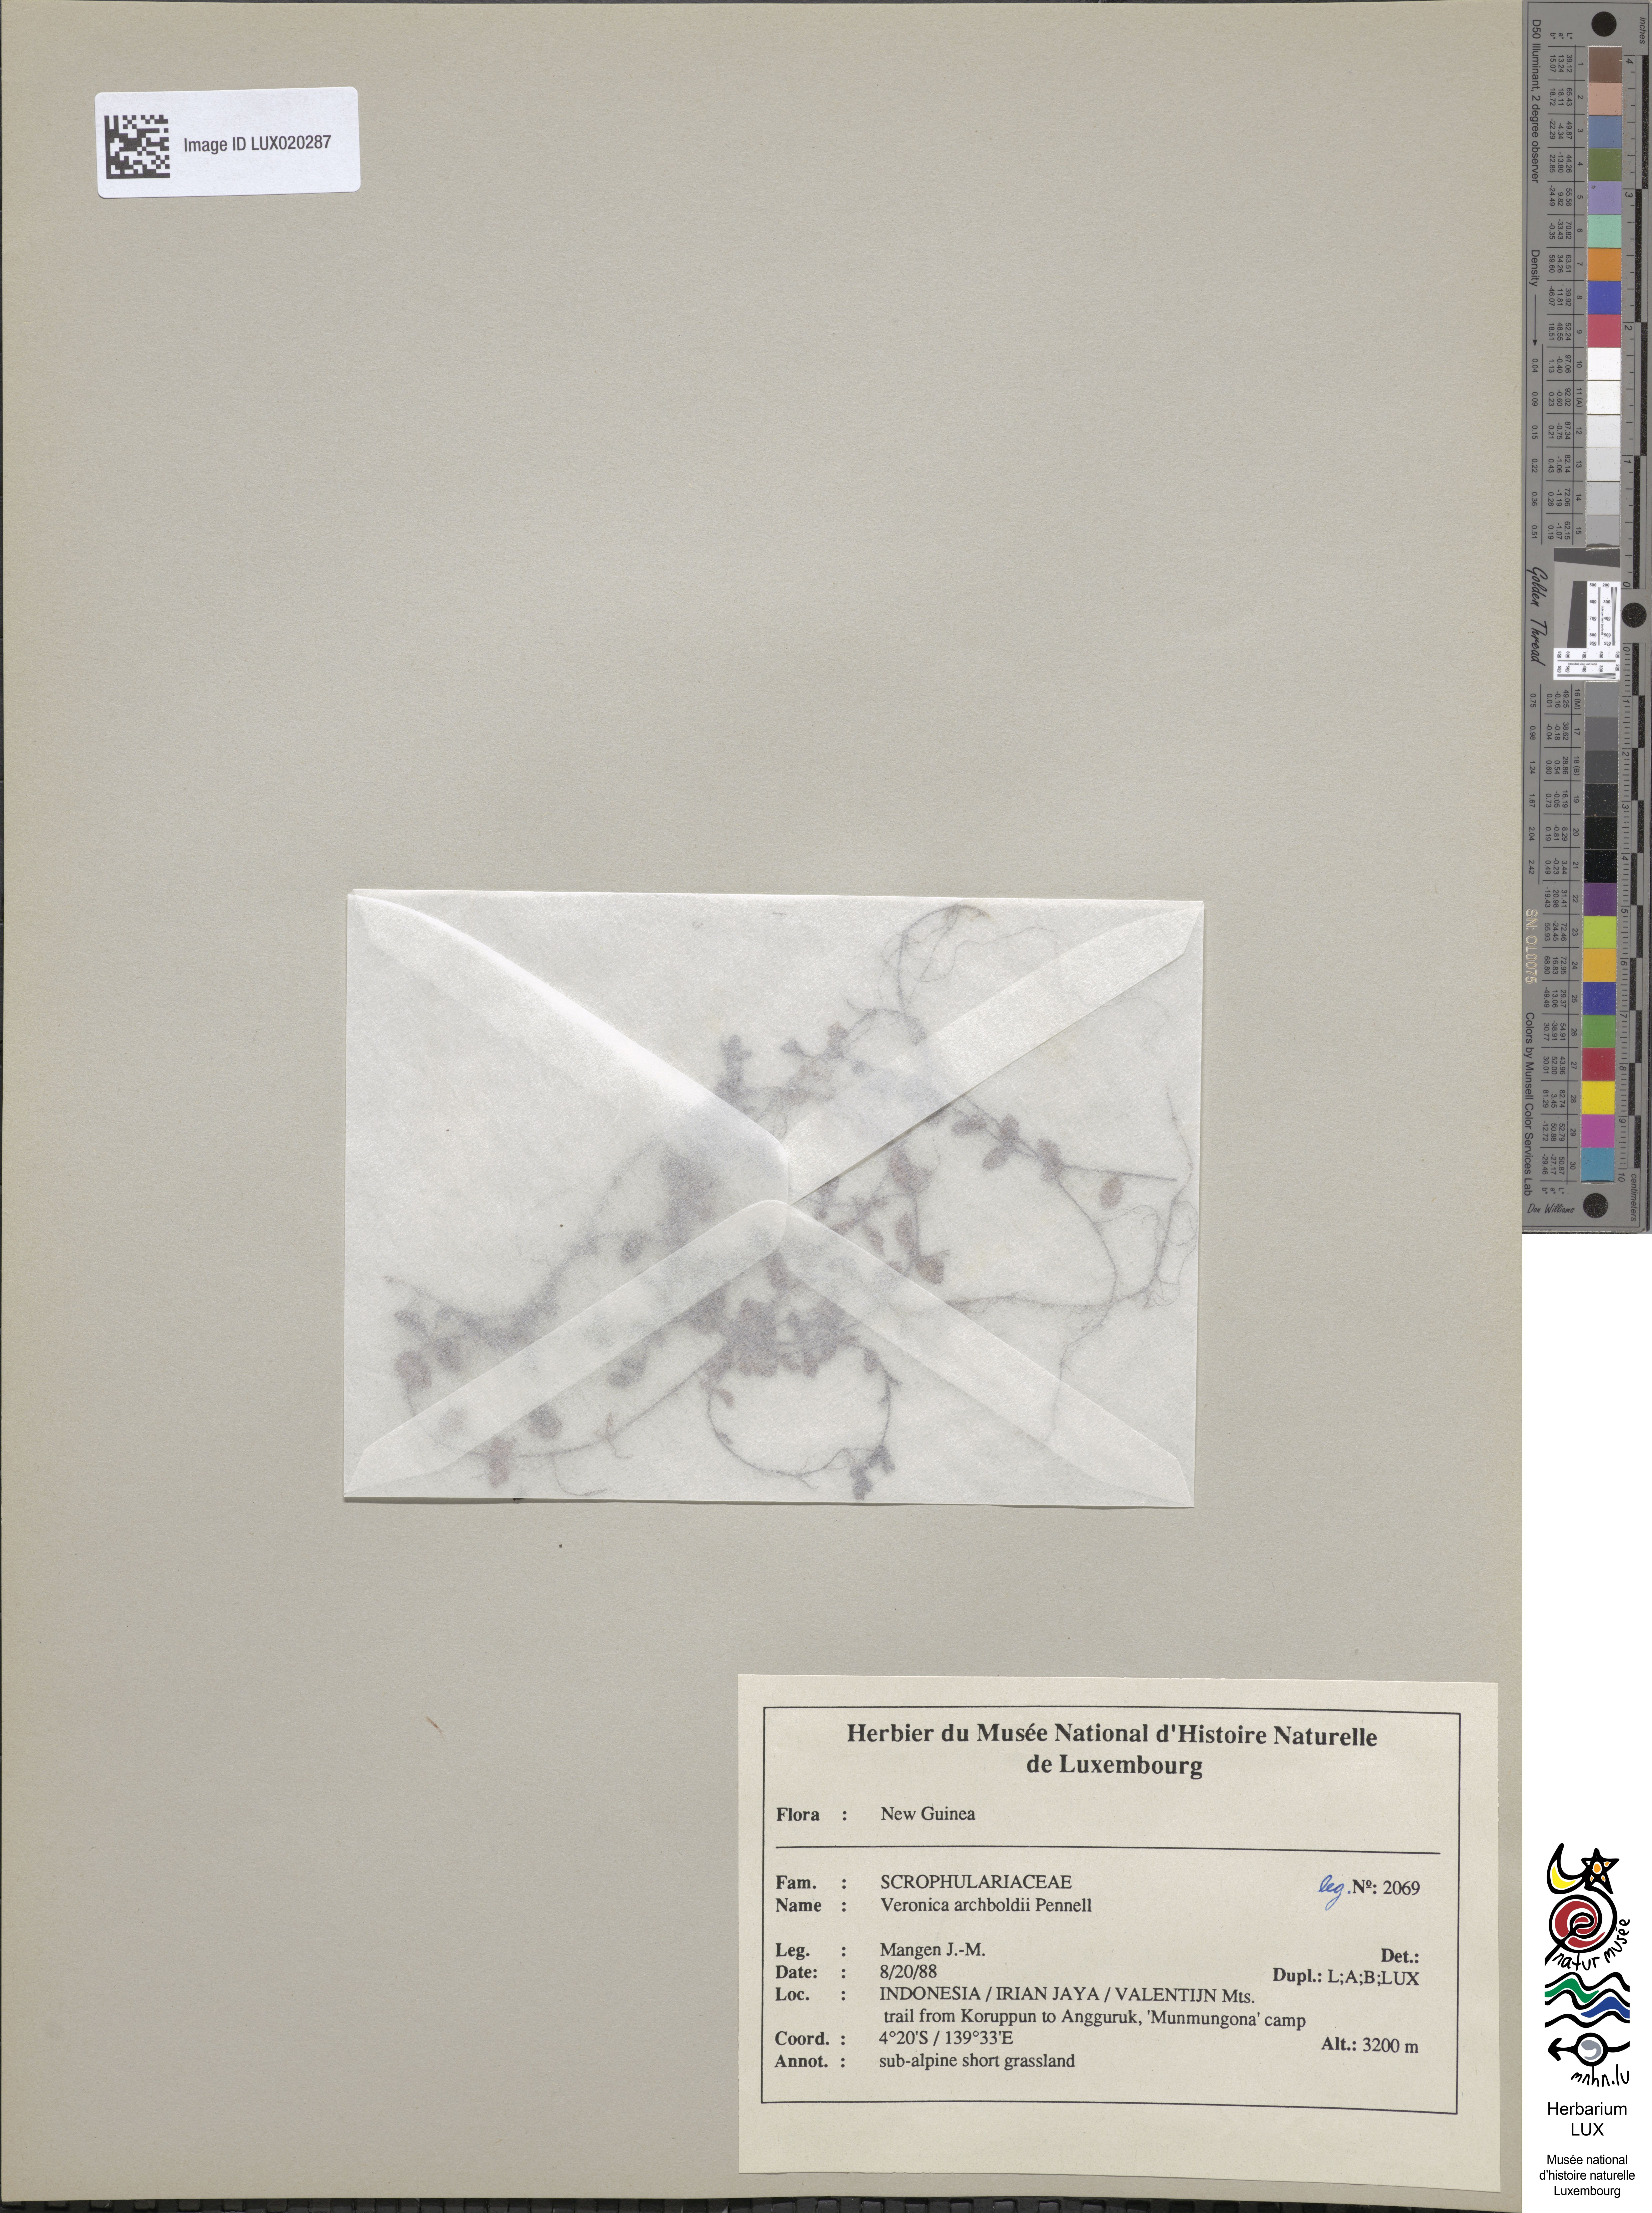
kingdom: Plantae
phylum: Tracheophyta
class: Magnoliopsida
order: Lamiales
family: Plantaginaceae
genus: Veronica
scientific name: Veronica archboldii
